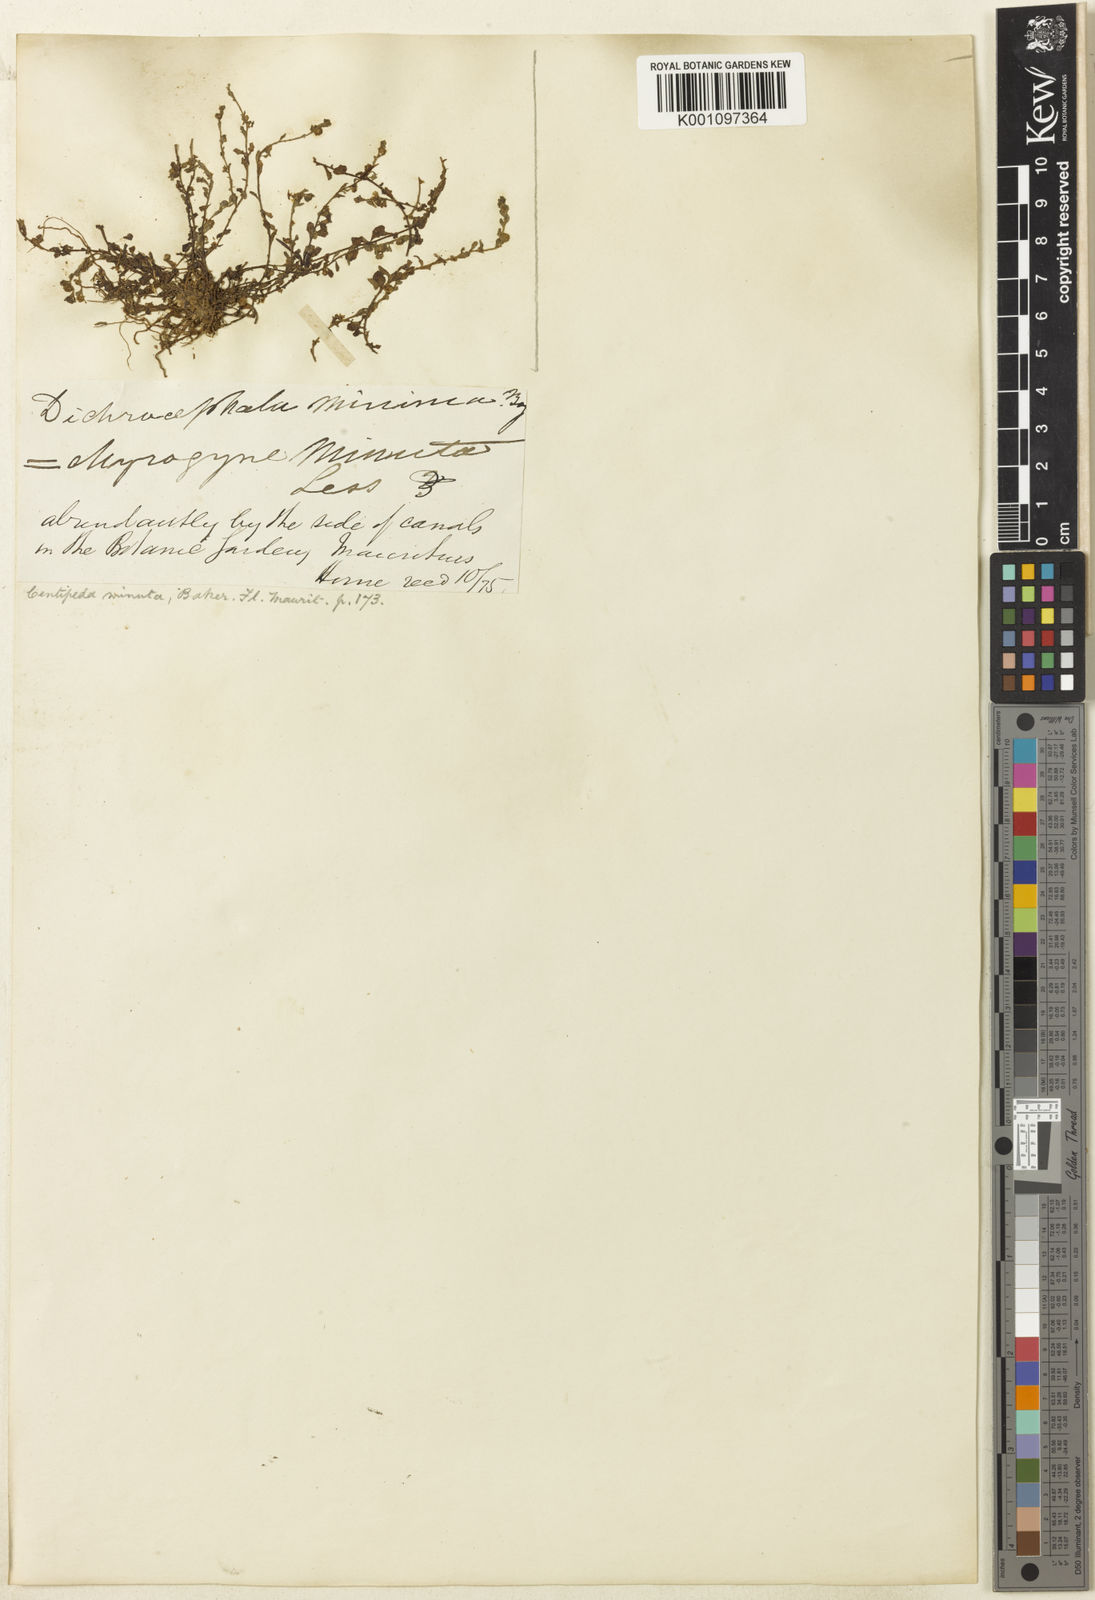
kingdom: Plantae
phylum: Tracheophyta
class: Magnoliopsida
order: Asterales
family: Asteraceae
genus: Centipeda
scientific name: Centipeda minima
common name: Spreading sneezeweed
